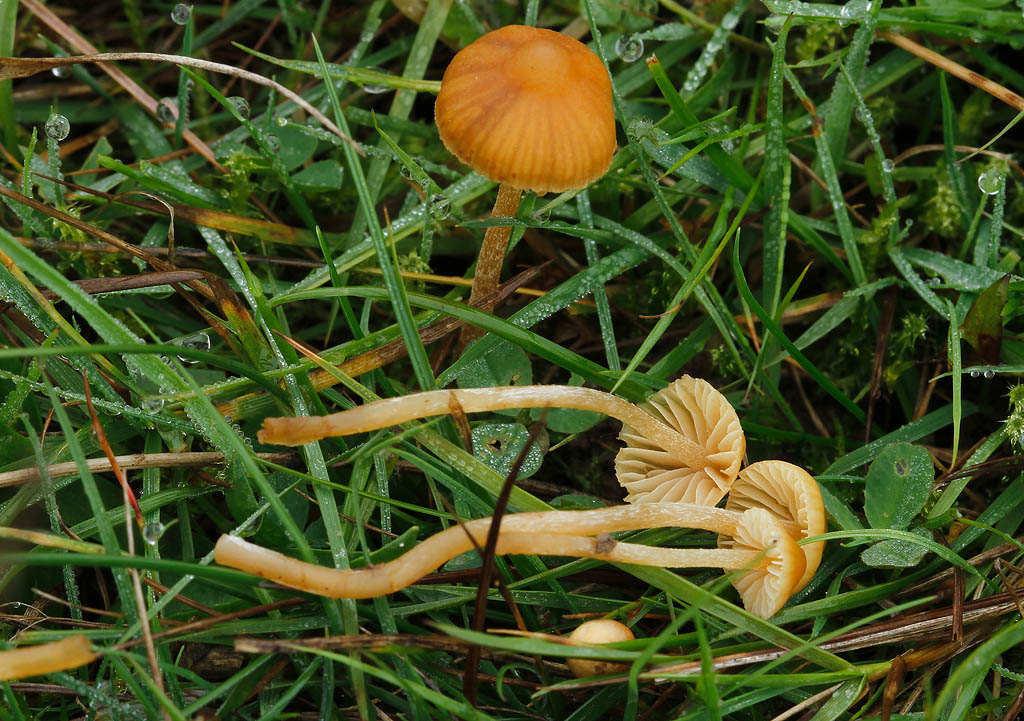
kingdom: Fungi
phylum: Basidiomycota
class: Agaricomycetes
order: Agaricales
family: Hymenogastraceae
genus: Galerina
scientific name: Galerina clavata
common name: kær-hjelmhat
